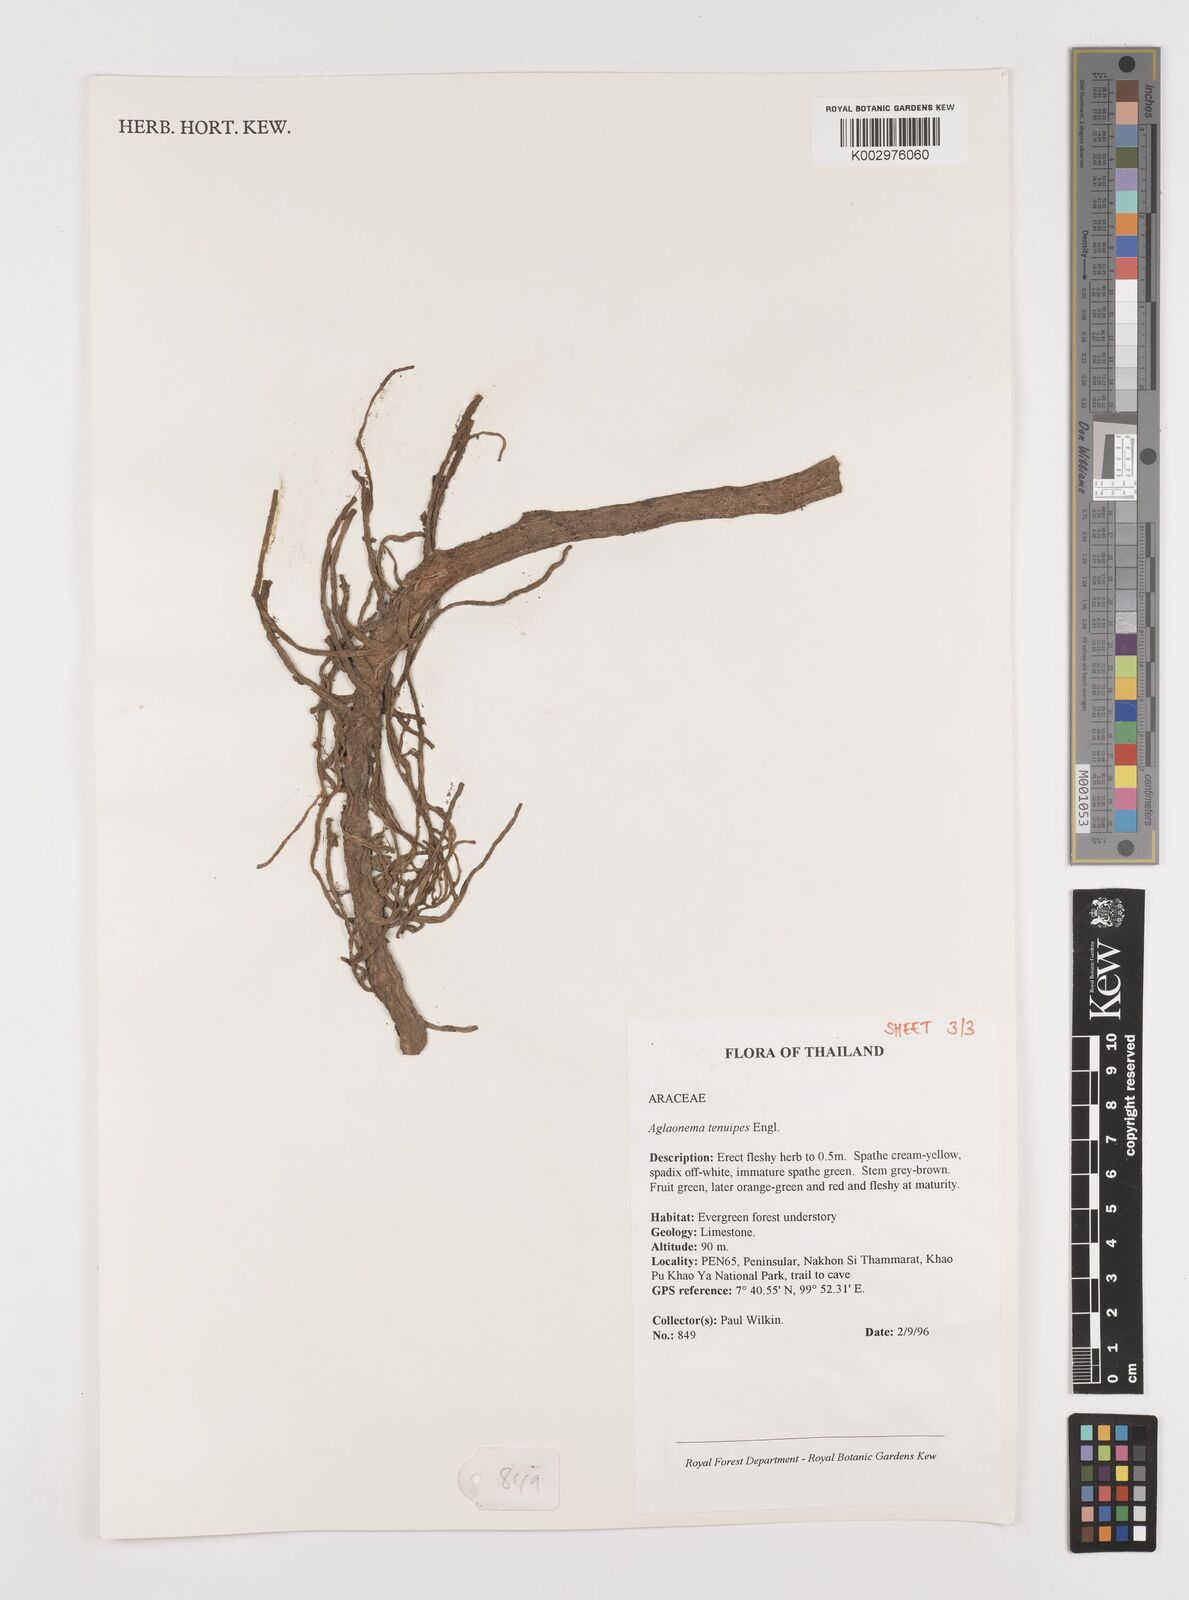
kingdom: Plantae
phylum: Tracheophyta
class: Liliopsida
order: Alismatales
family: Araceae
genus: Aglaonema
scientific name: Aglaonema simplex
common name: Malayan-sword
